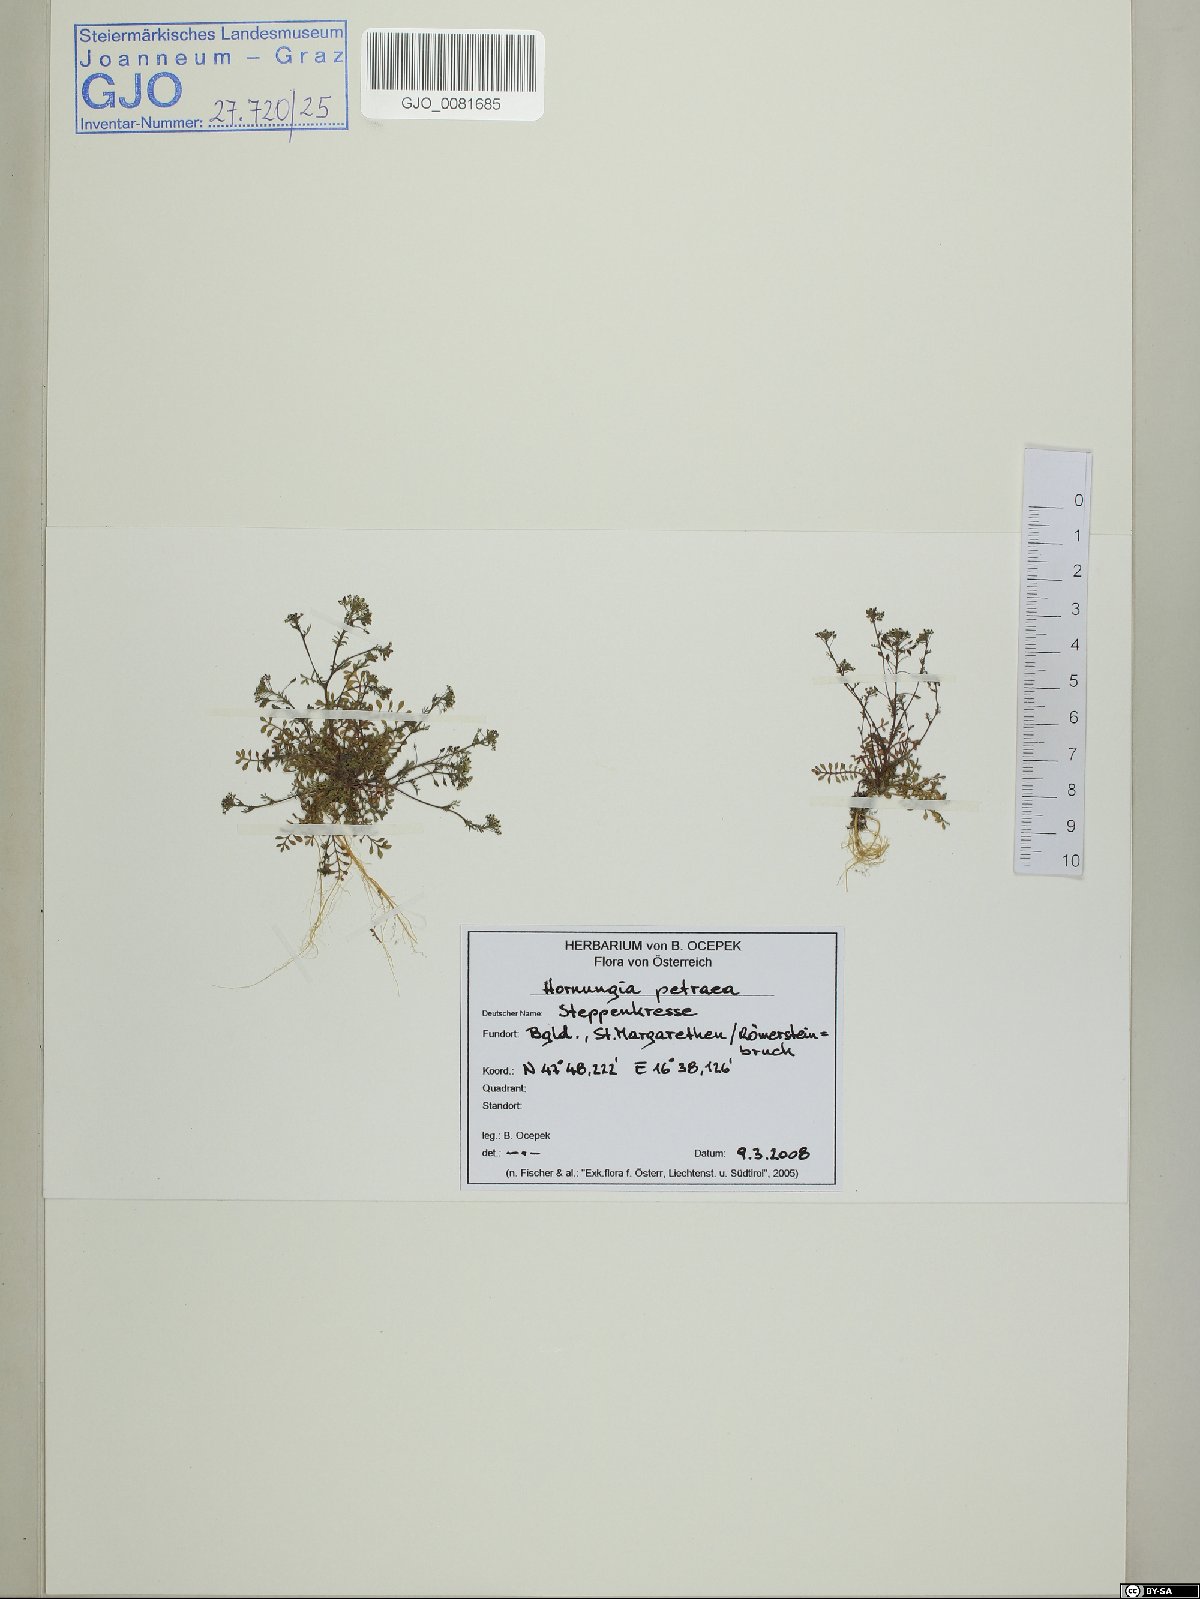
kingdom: Plantae
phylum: Tracheophyta
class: Magnoliopsida
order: Brassicales
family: Brassicaceae
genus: Hornungia
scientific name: Hornungia petraea
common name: Hutchinsia
